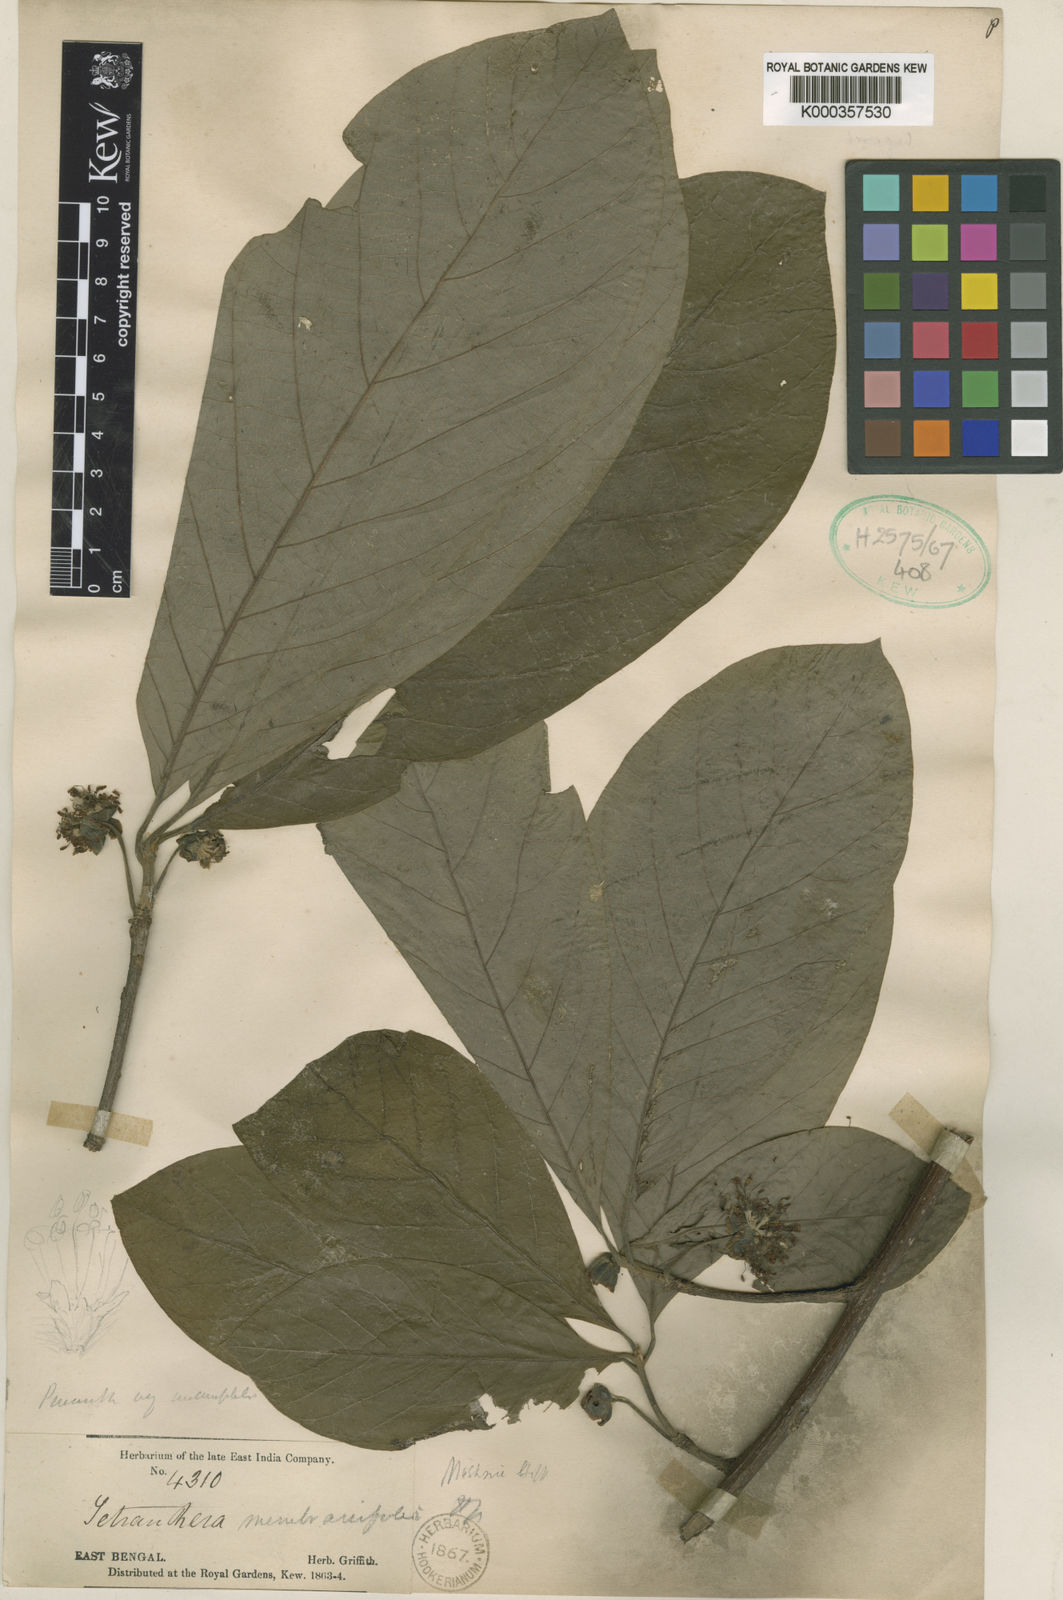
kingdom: Plantae
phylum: Tracheophyta
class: Magnoliopsida
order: Laurales
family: Lauraceae
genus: Litsea
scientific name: Litsea membranifolia
